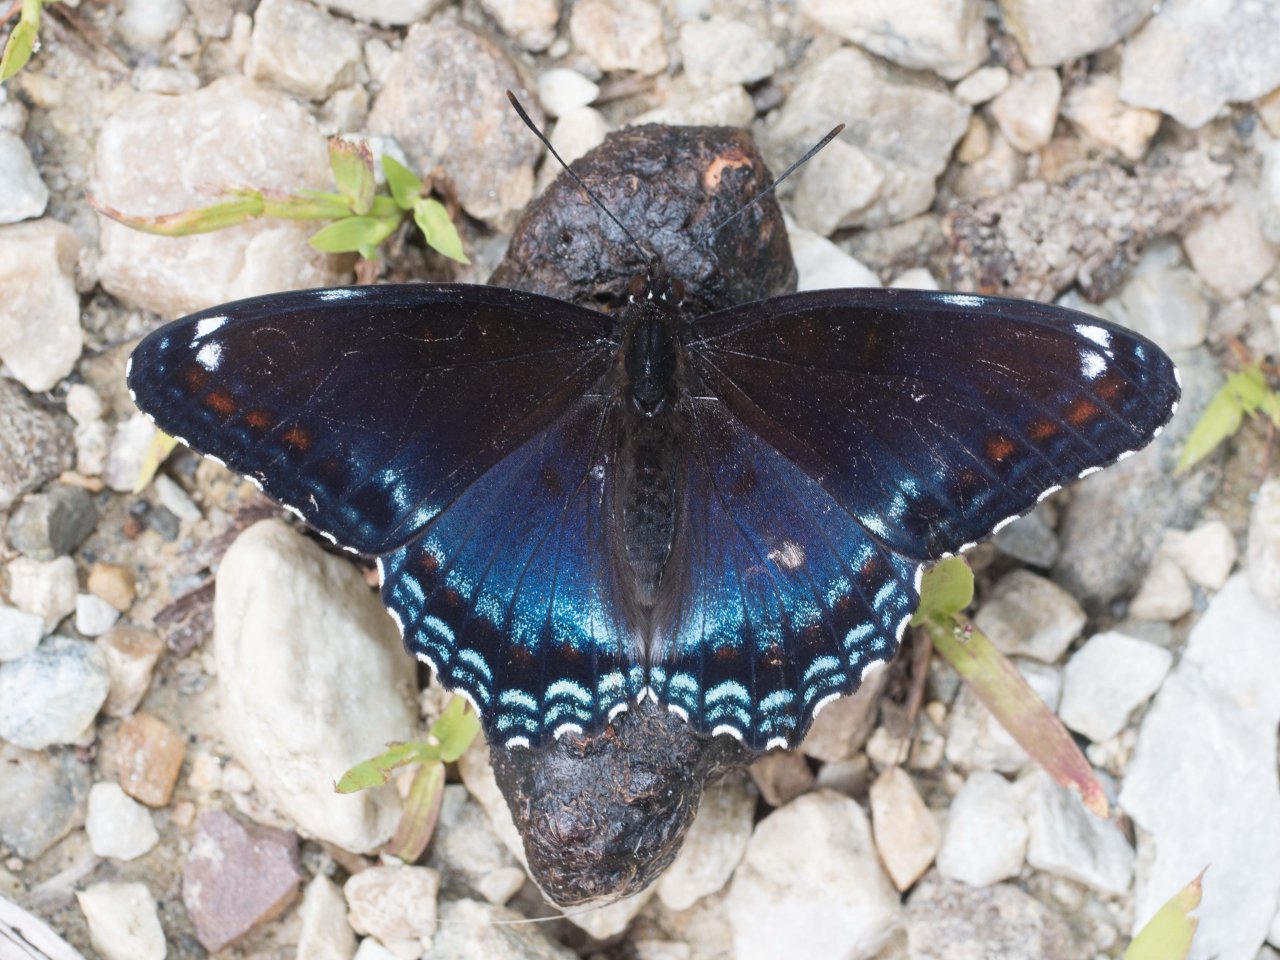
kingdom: Animalia
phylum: Arthropoda
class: Insecta
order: Lepidoptera
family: Nymphalidae
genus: Limenitis
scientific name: Limenitis
